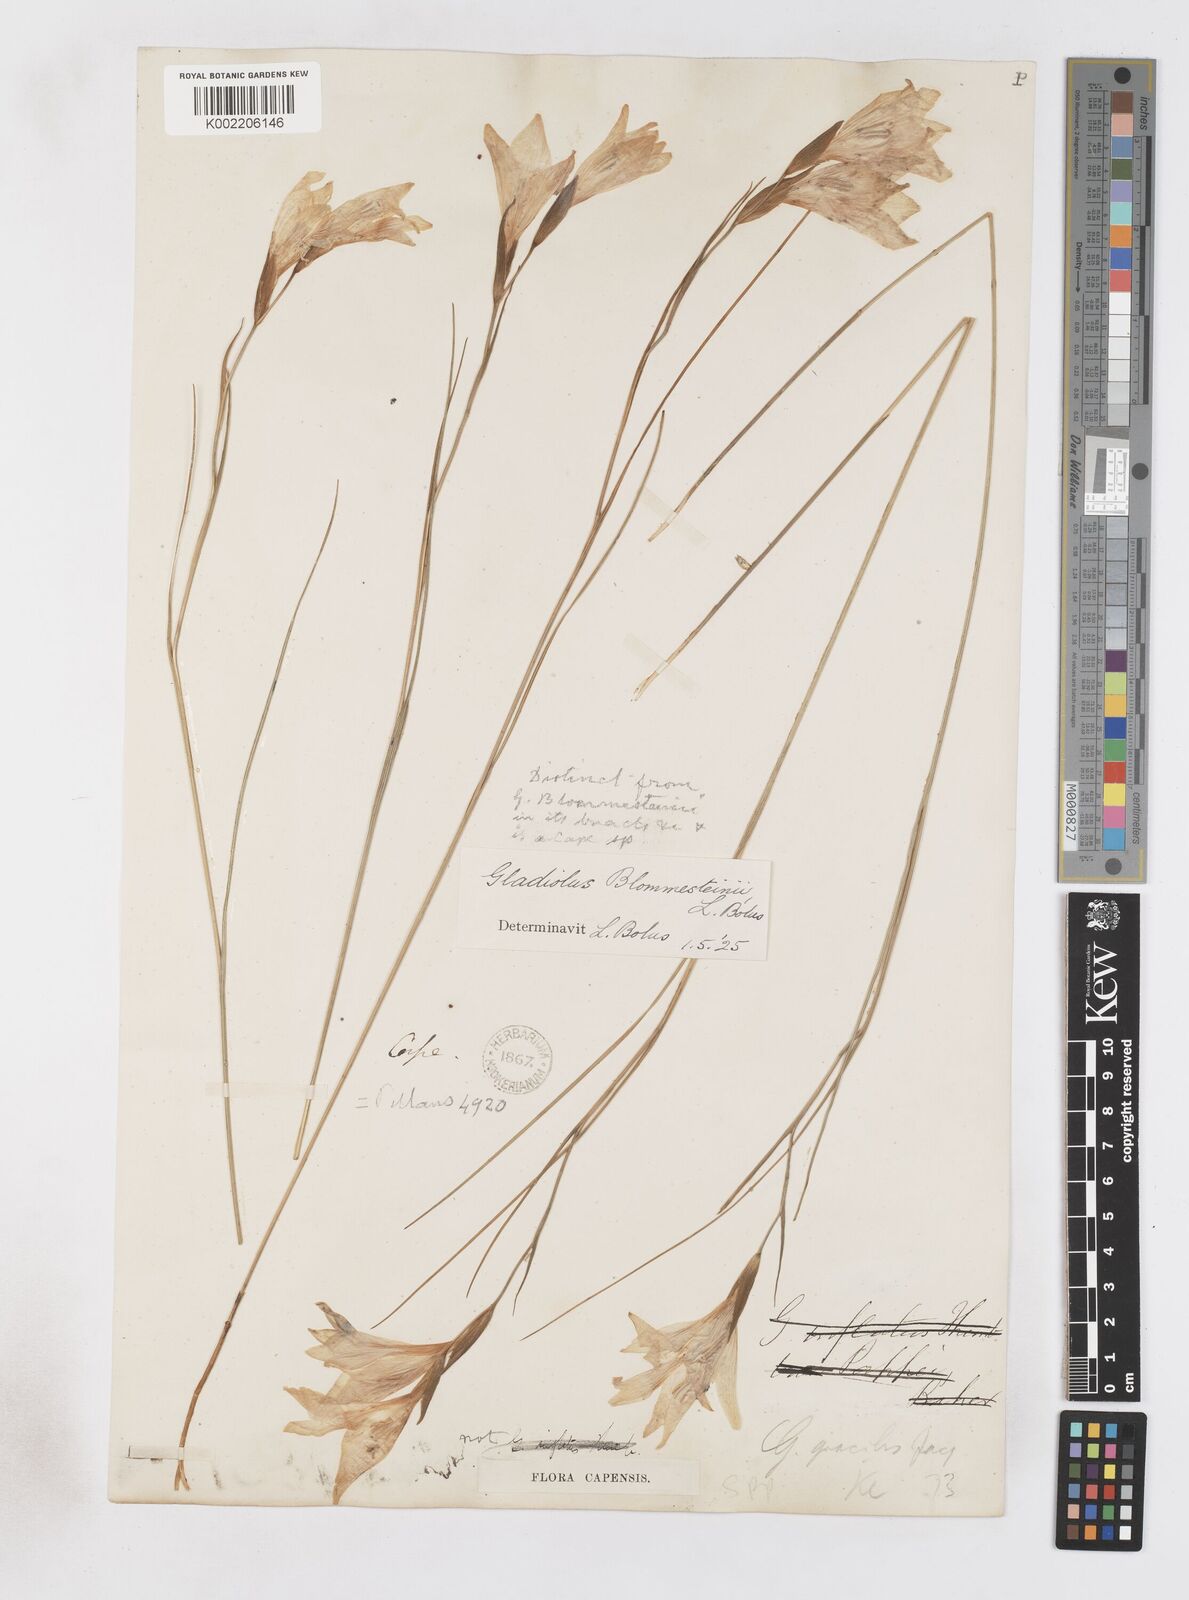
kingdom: Plantae
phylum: Tracheophyta
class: Liliopsida
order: Asparagales
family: Iridaceae
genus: Gladiolus
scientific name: Gladiolus virgatus
